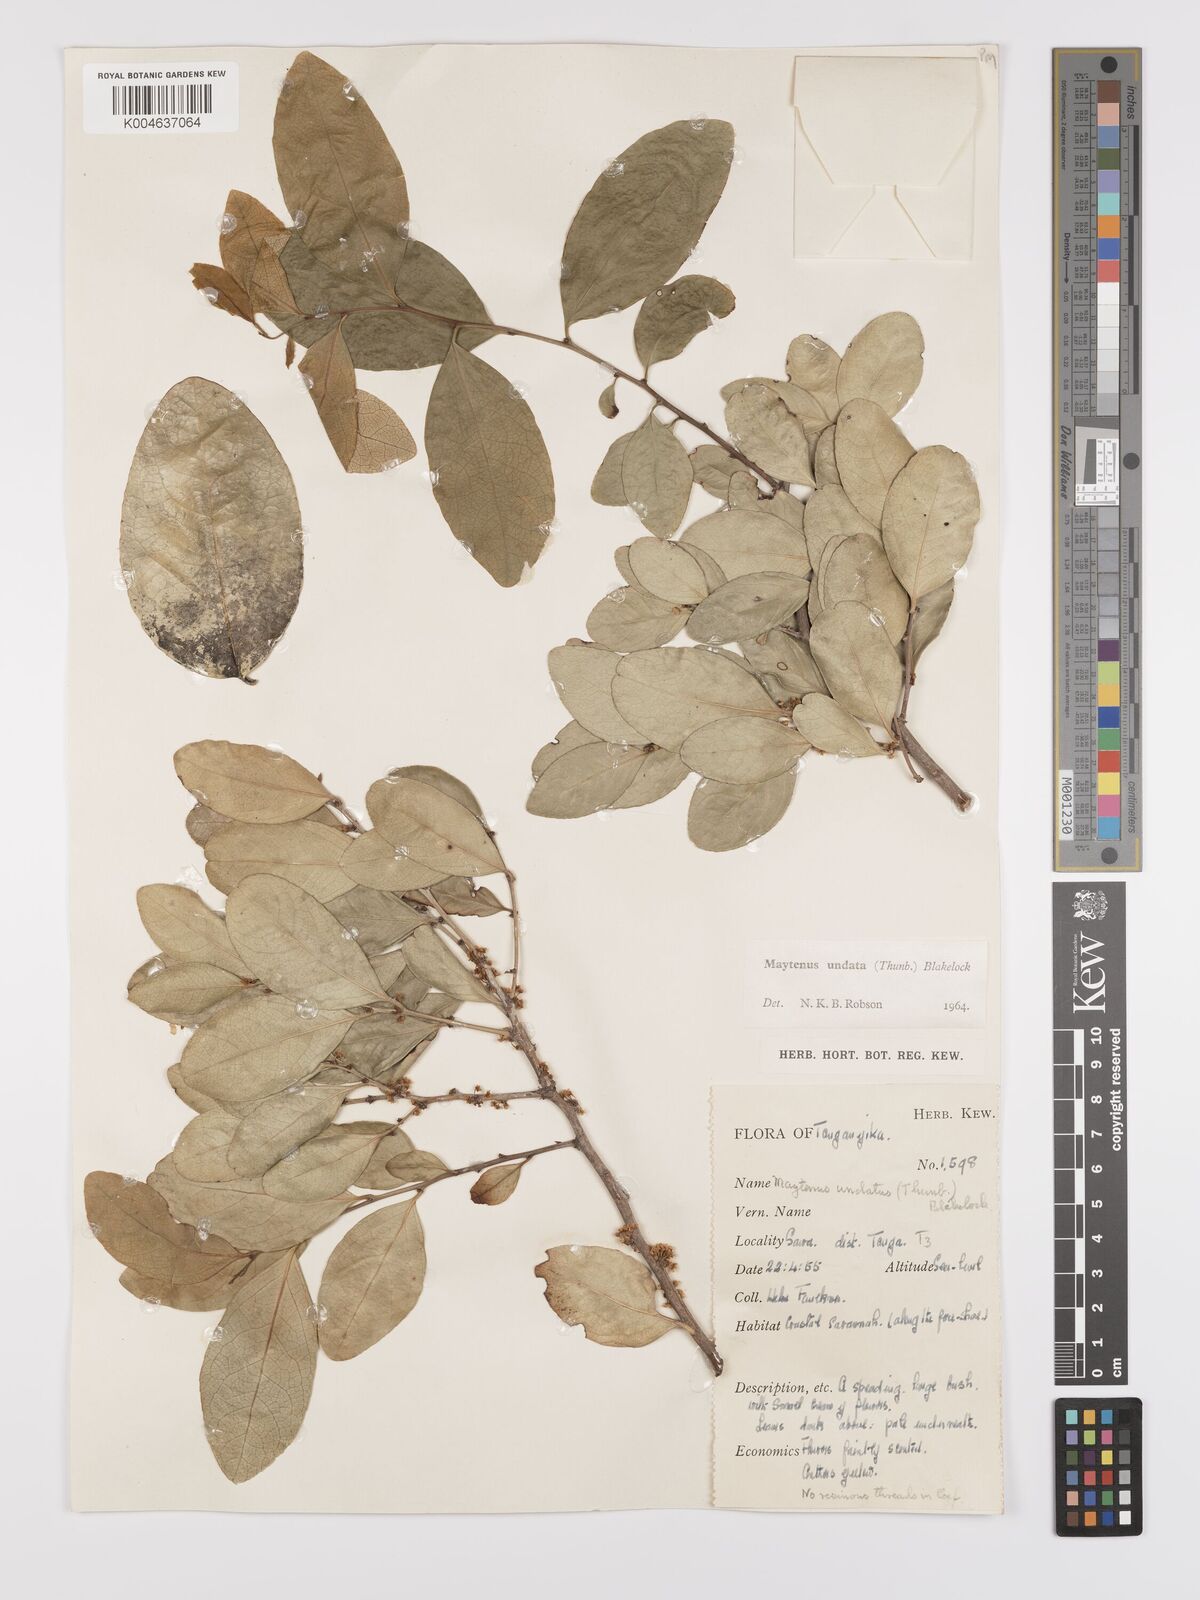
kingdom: Plantae
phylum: Tracheophyta
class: Magnoliopsida
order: Celastrales
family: Celastraceae
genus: Gymnosporia
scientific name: Gymnosporia undata
